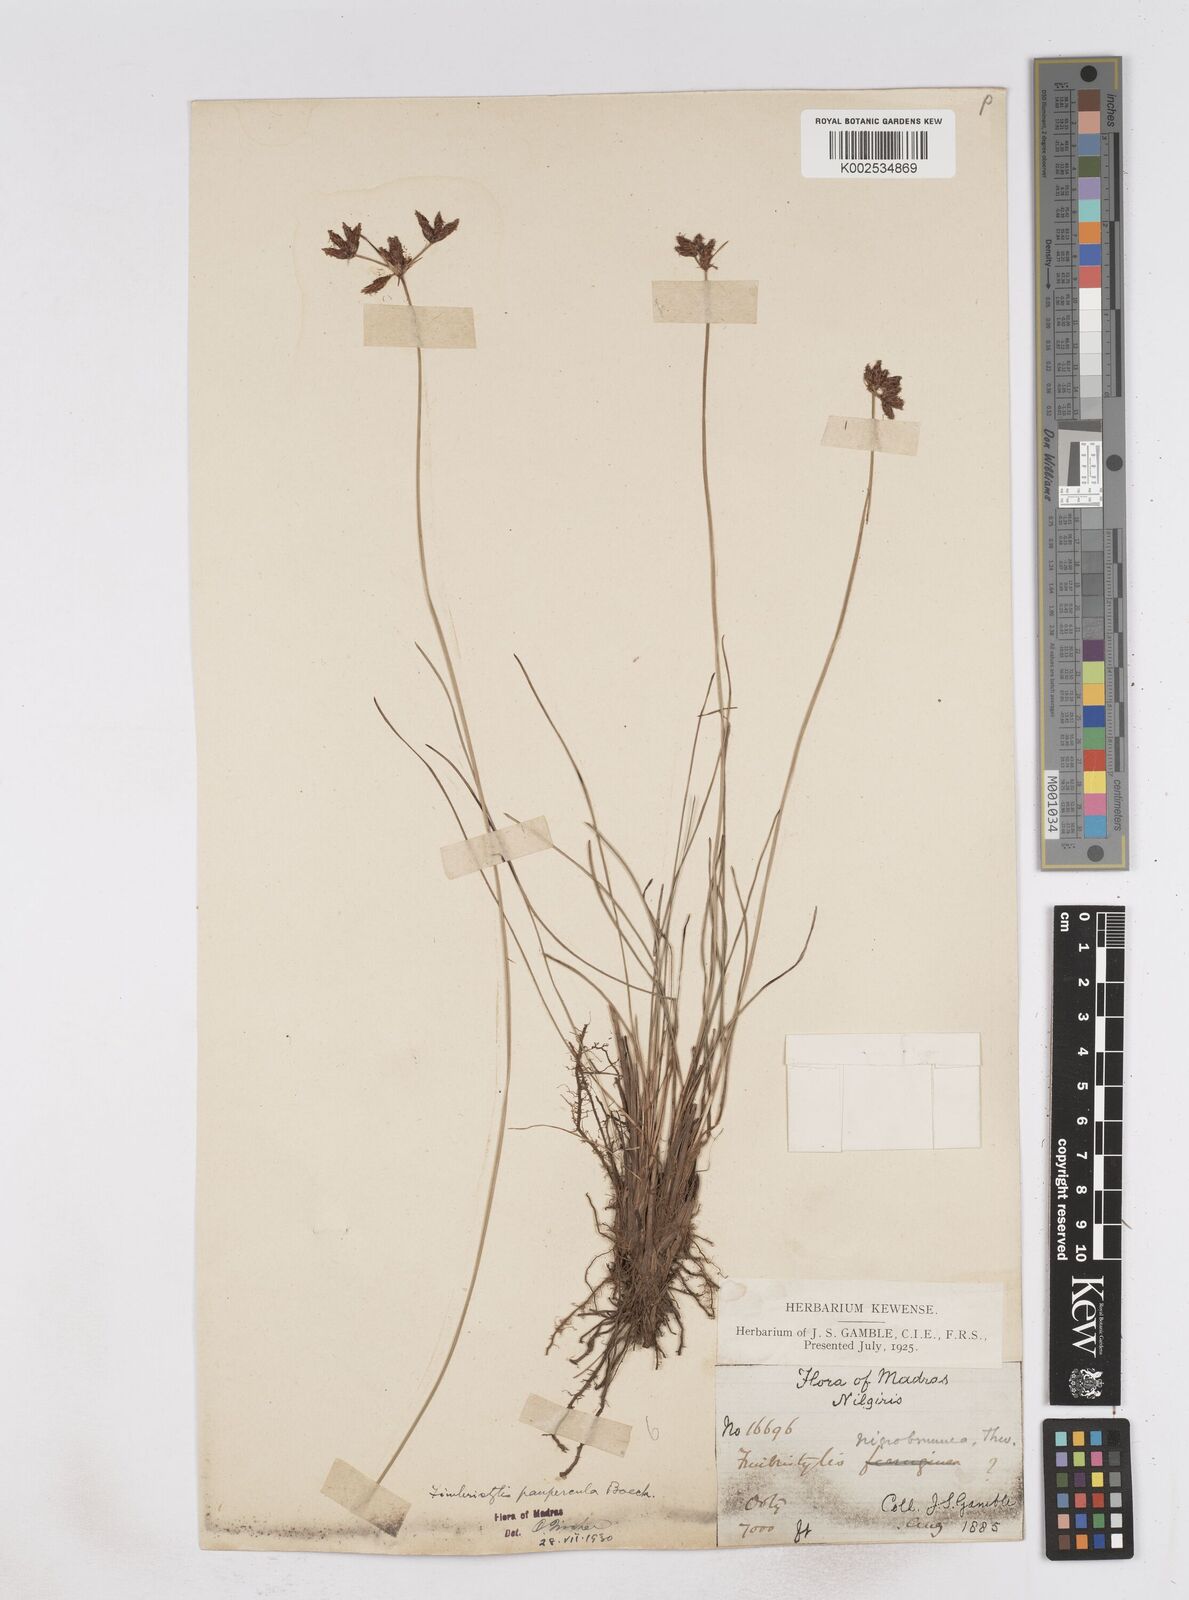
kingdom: Plantae
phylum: Tracheophyta
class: Liliopsida
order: Poales
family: Cyperaceae
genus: Fimbristylis
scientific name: Fimbristylis paupercula
